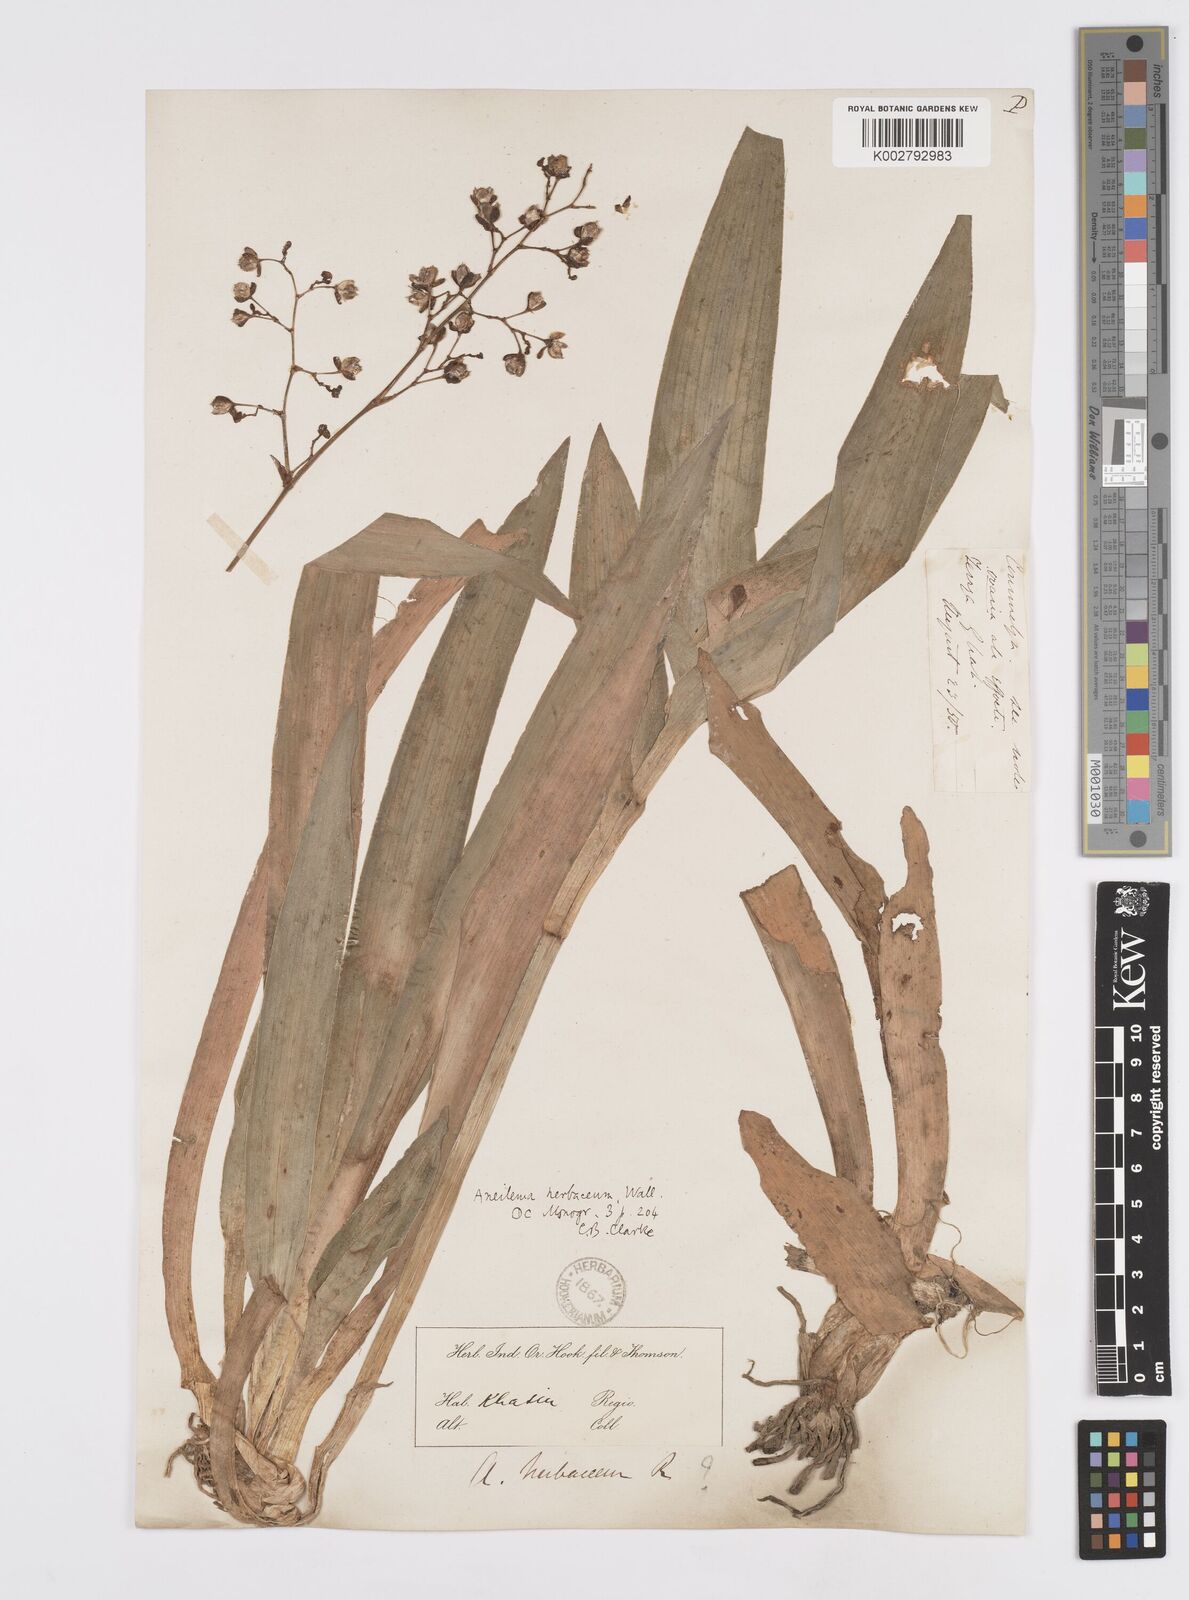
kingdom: Plantae
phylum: Tracheophyta
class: Liliopsida
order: Commelinales
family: Commelinaceae
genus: Murdannia
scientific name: Murdannia
